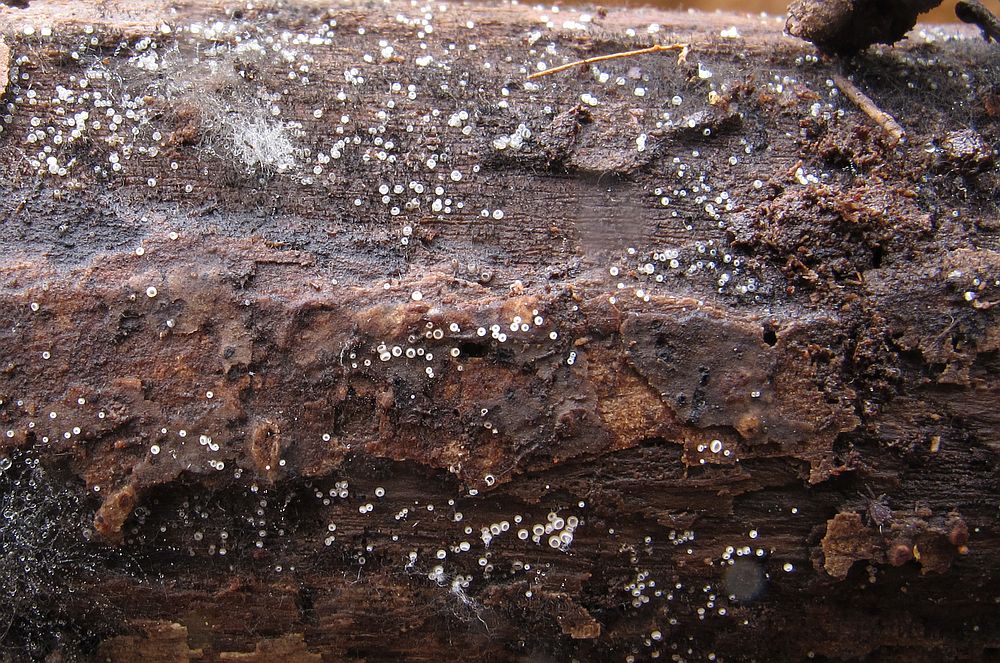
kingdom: Fungi
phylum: Ascomycota
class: Leotiomycetes
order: Helotiales
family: Hyaloscyphaceae
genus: Hyalopeziza
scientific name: Hyalopeziza millepunctata
